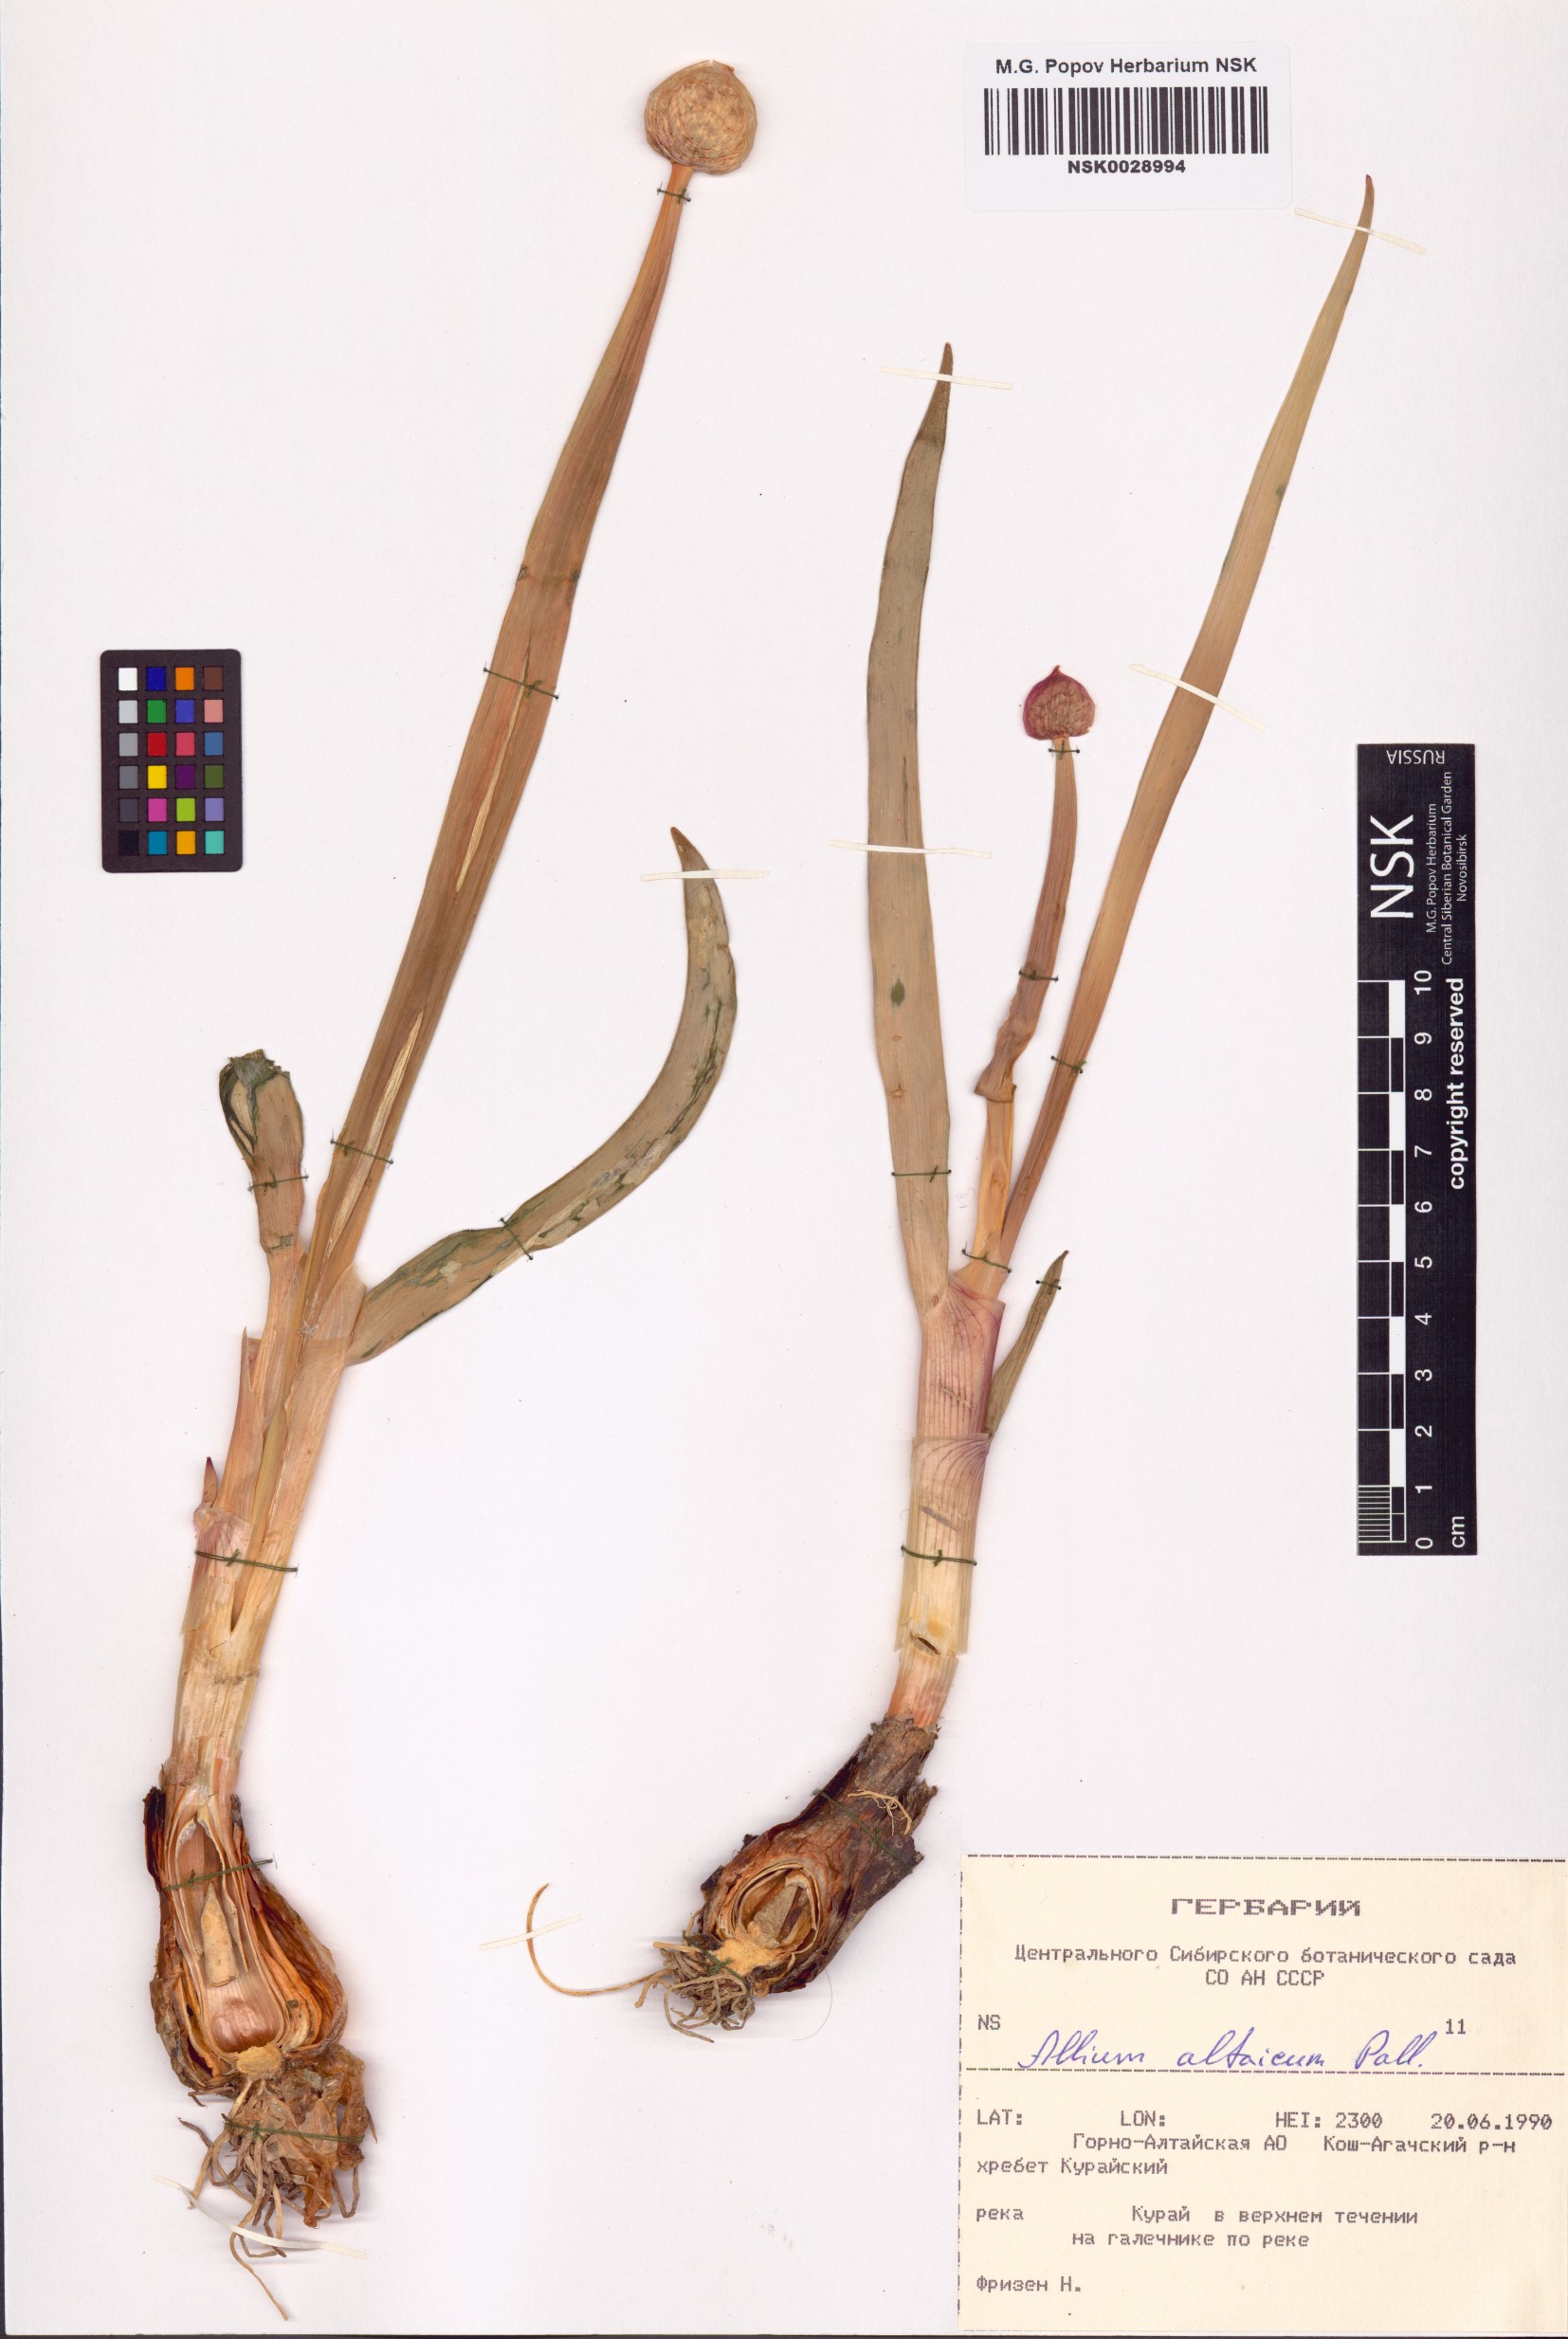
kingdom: Plantae
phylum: Tracheophyta
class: Liliopsida
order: Asparagales
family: Amaryllidaceae
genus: Allium
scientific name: Allium altaicum
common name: Altai onion
